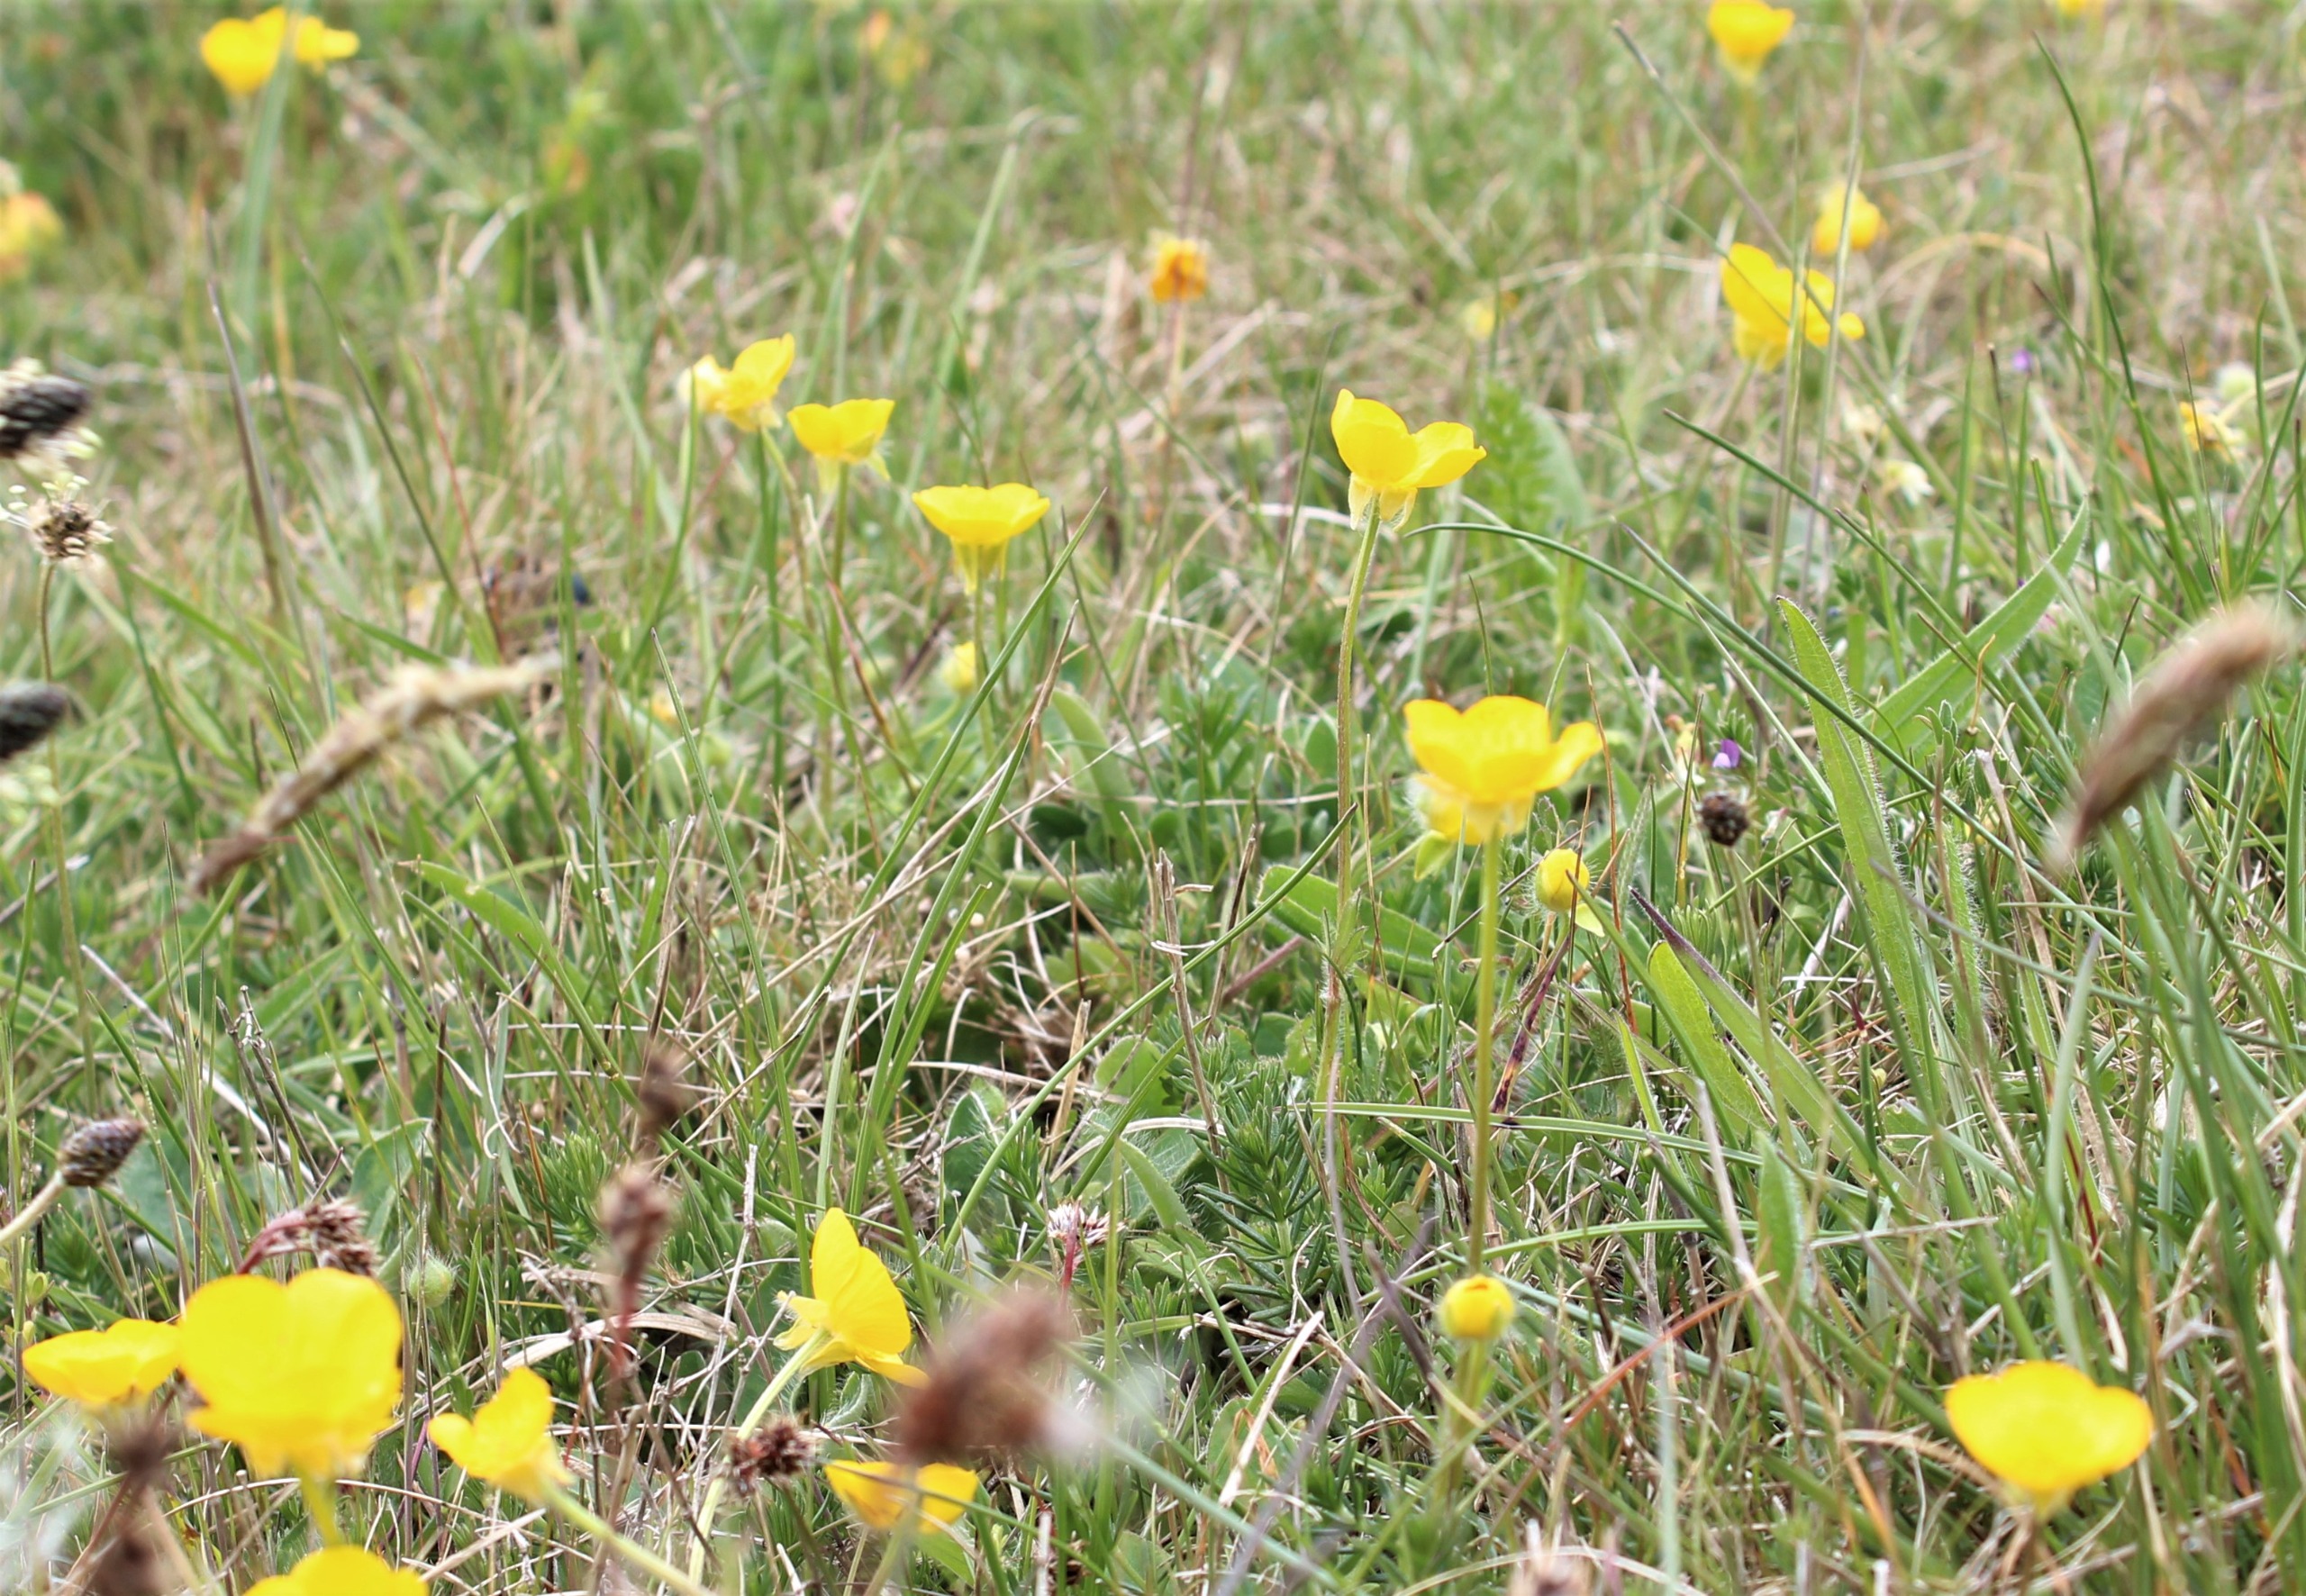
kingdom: Plantae
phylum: Tracheophyta
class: Magnoliopsida
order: Ranunculales
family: Ranunculaceae
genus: Ranunculus
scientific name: Ranunculus bulbosus
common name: Knold-ranunkel
